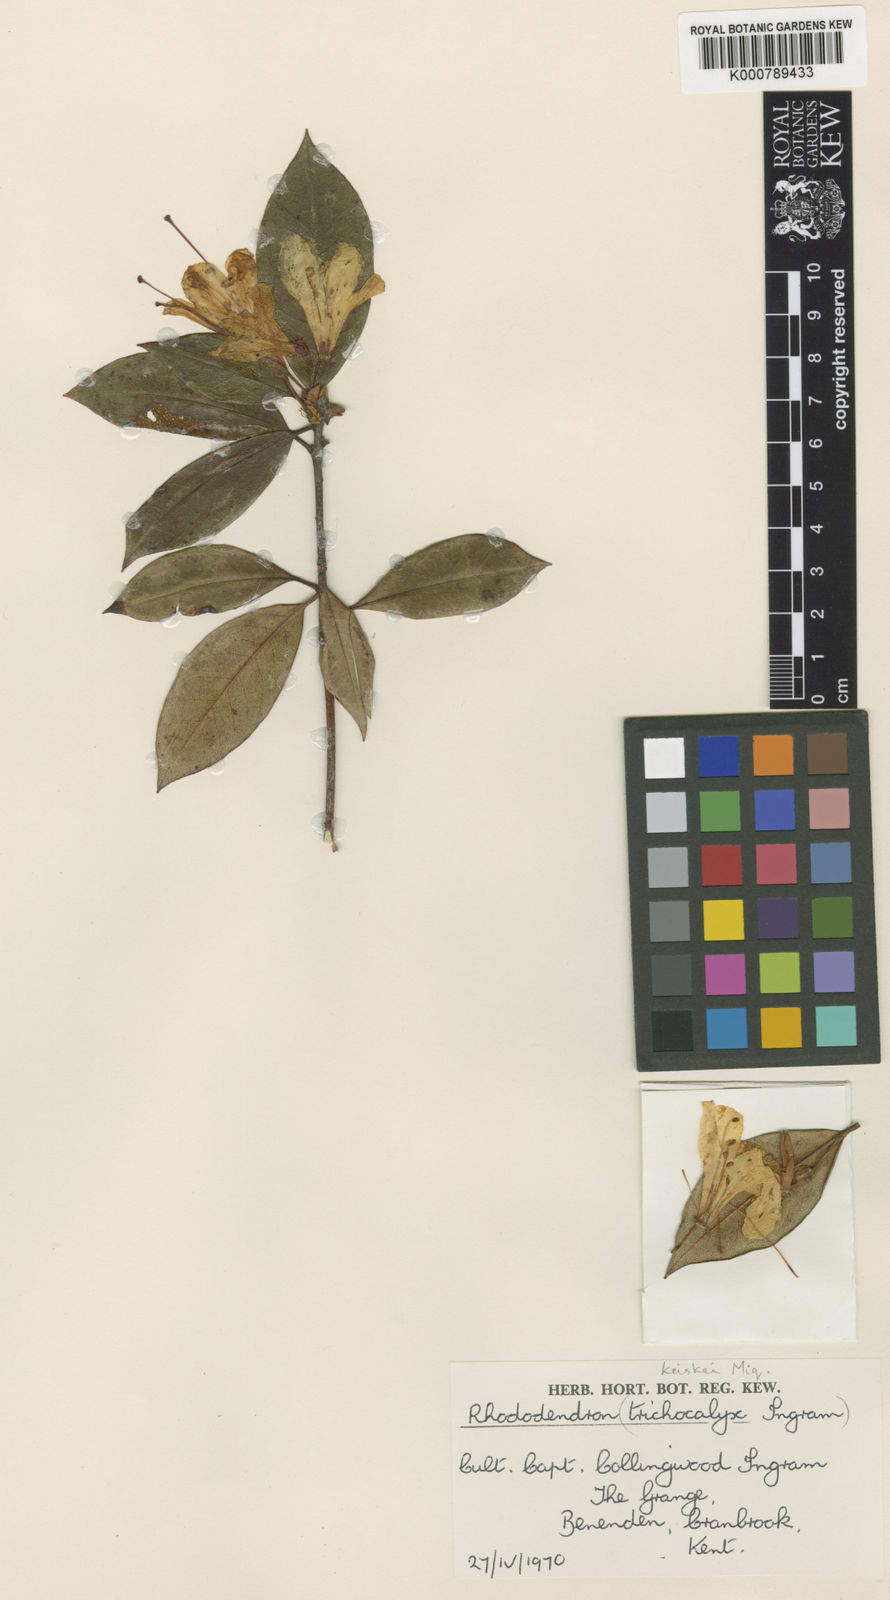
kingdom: Plantae
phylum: Tracheophyta
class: Magnoliopsida
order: Ericales
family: Ericaceae
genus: Rhododendron
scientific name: Rhododendron
